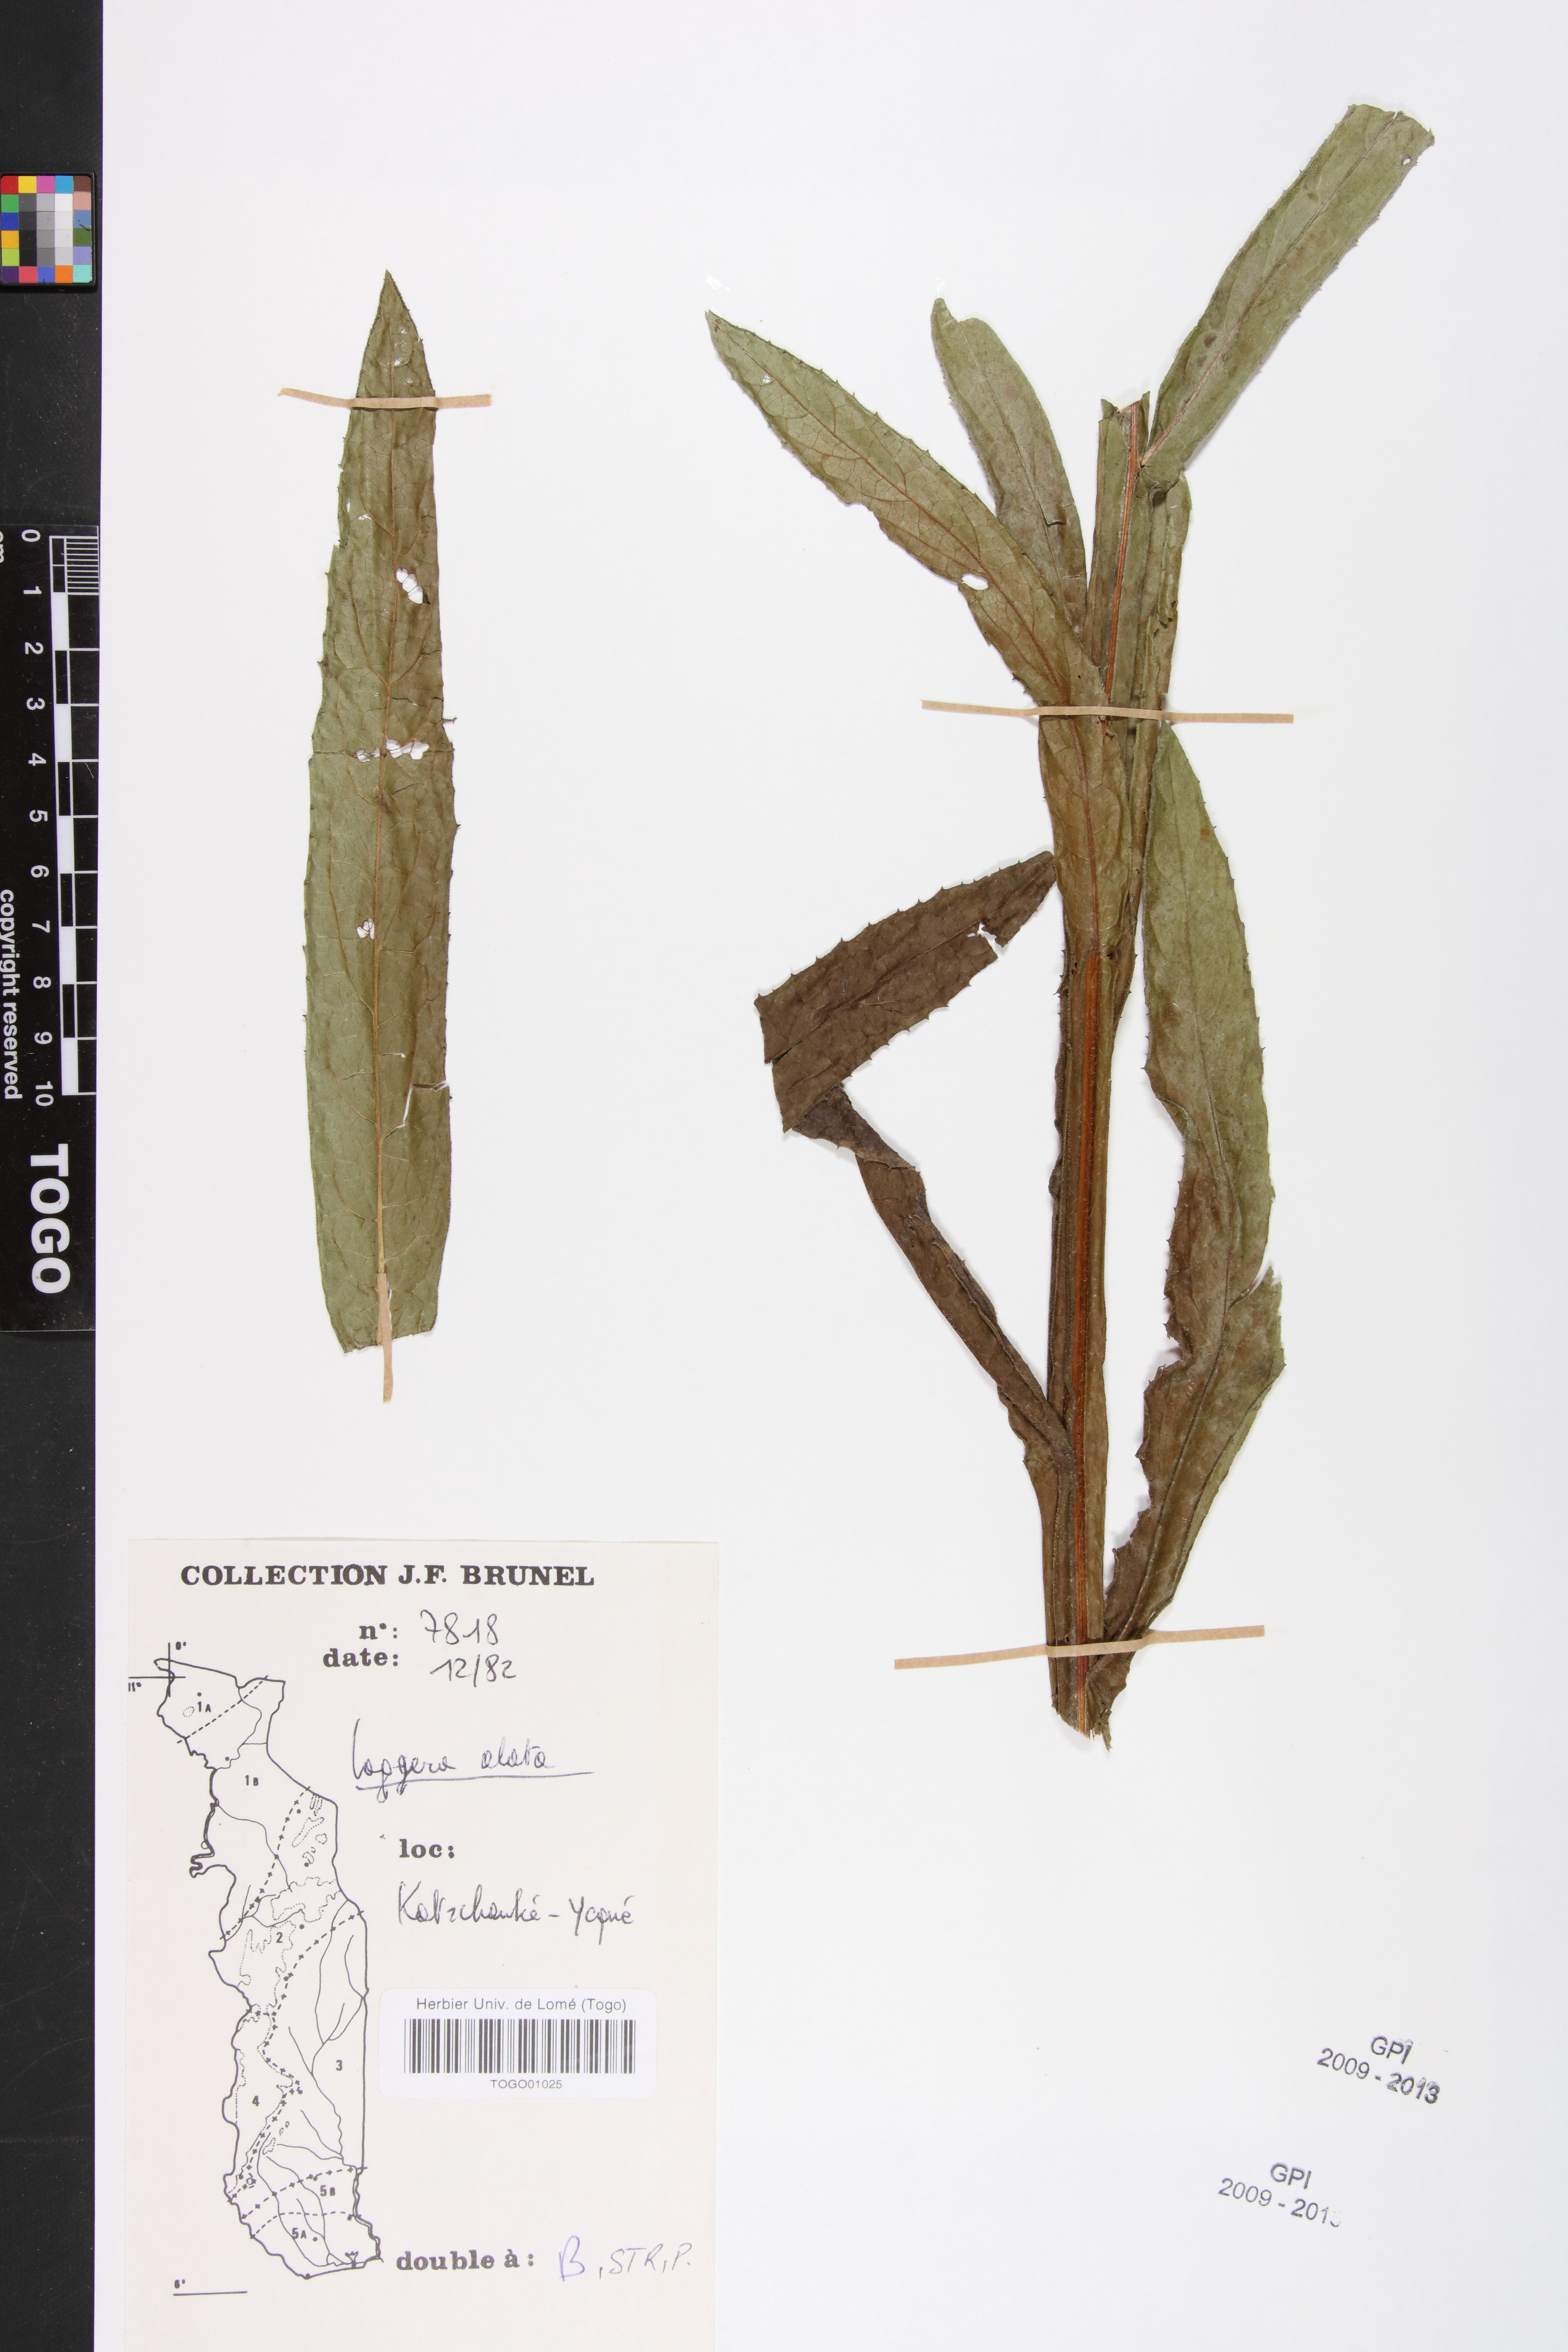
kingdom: Plantae
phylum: Tracheophyta
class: Magnoliopsida
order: Asterales
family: Asteraceae
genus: Laggera
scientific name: Laggera alata
